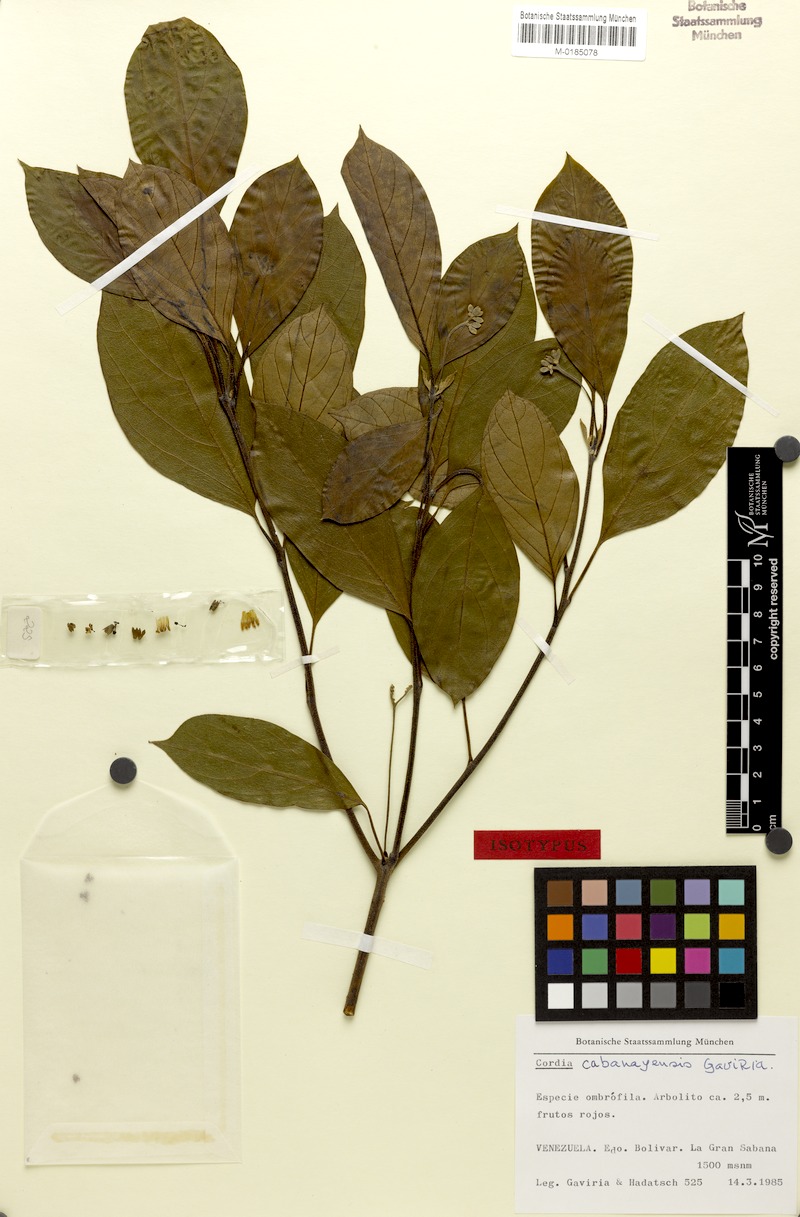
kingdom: Plantae
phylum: Tracheophyta
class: Magnoliopsida
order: Boraginales
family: Cordiaceae
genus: Cordia
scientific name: Cordia cabanayensis
